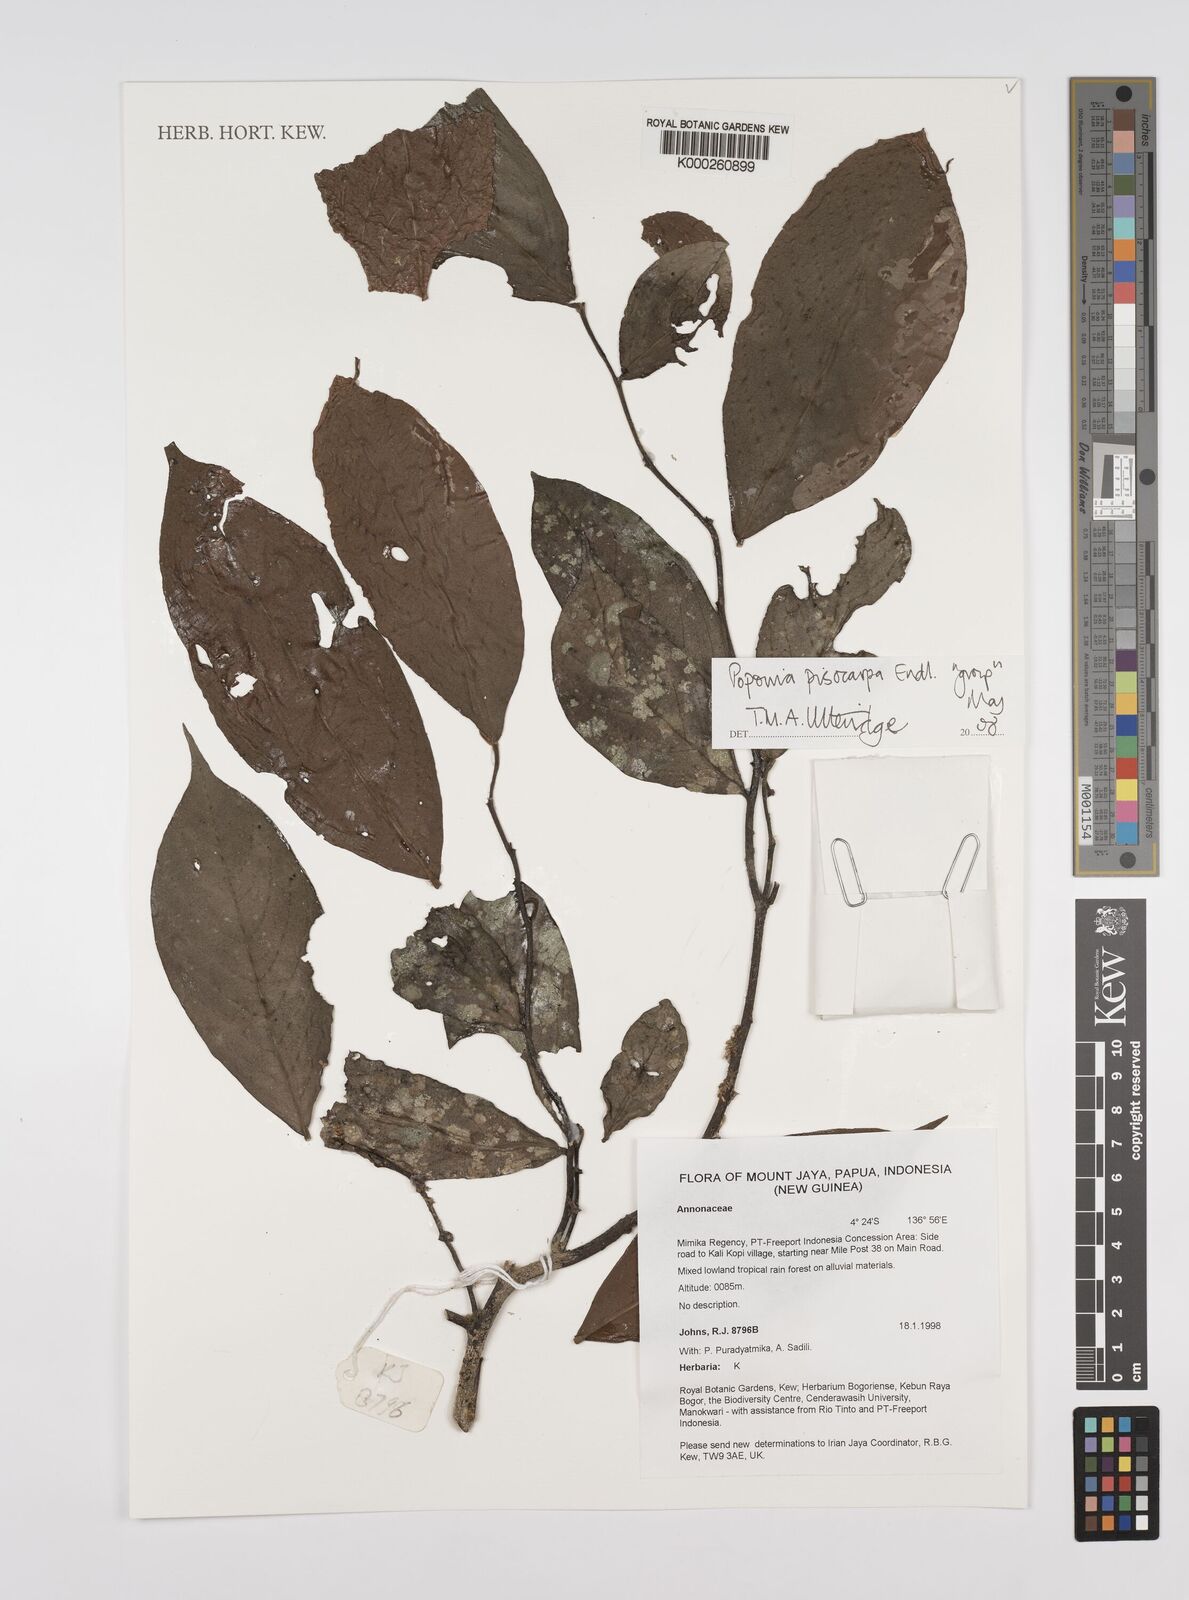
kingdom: Plantae
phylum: Tracheophyta
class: Magnoliopsida
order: Magnoliales
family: Annonaceae
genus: Popowia
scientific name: Popowia
